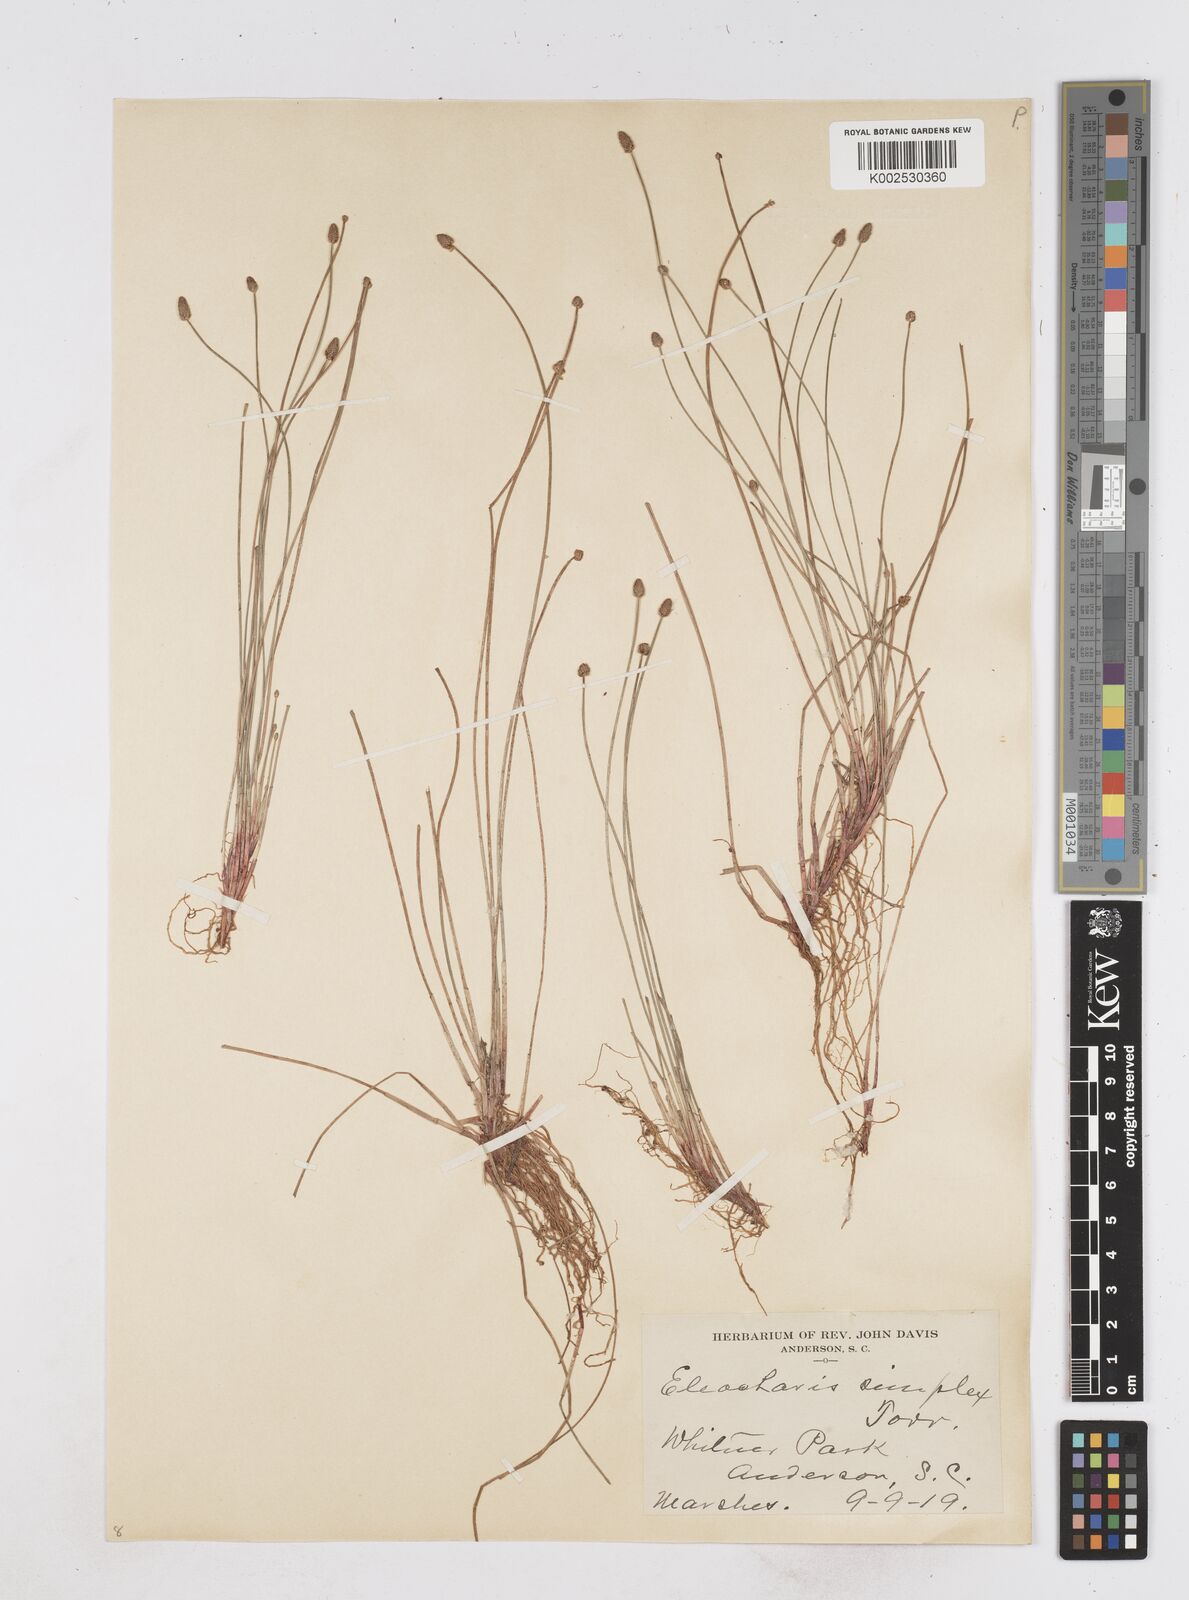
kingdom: Plantae
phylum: Tracheophyta
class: Liliopsida
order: Poales
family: Cyperaceae
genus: Eleocharis
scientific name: Eleocharis tuberculosa
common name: Cone-cup spikerush
